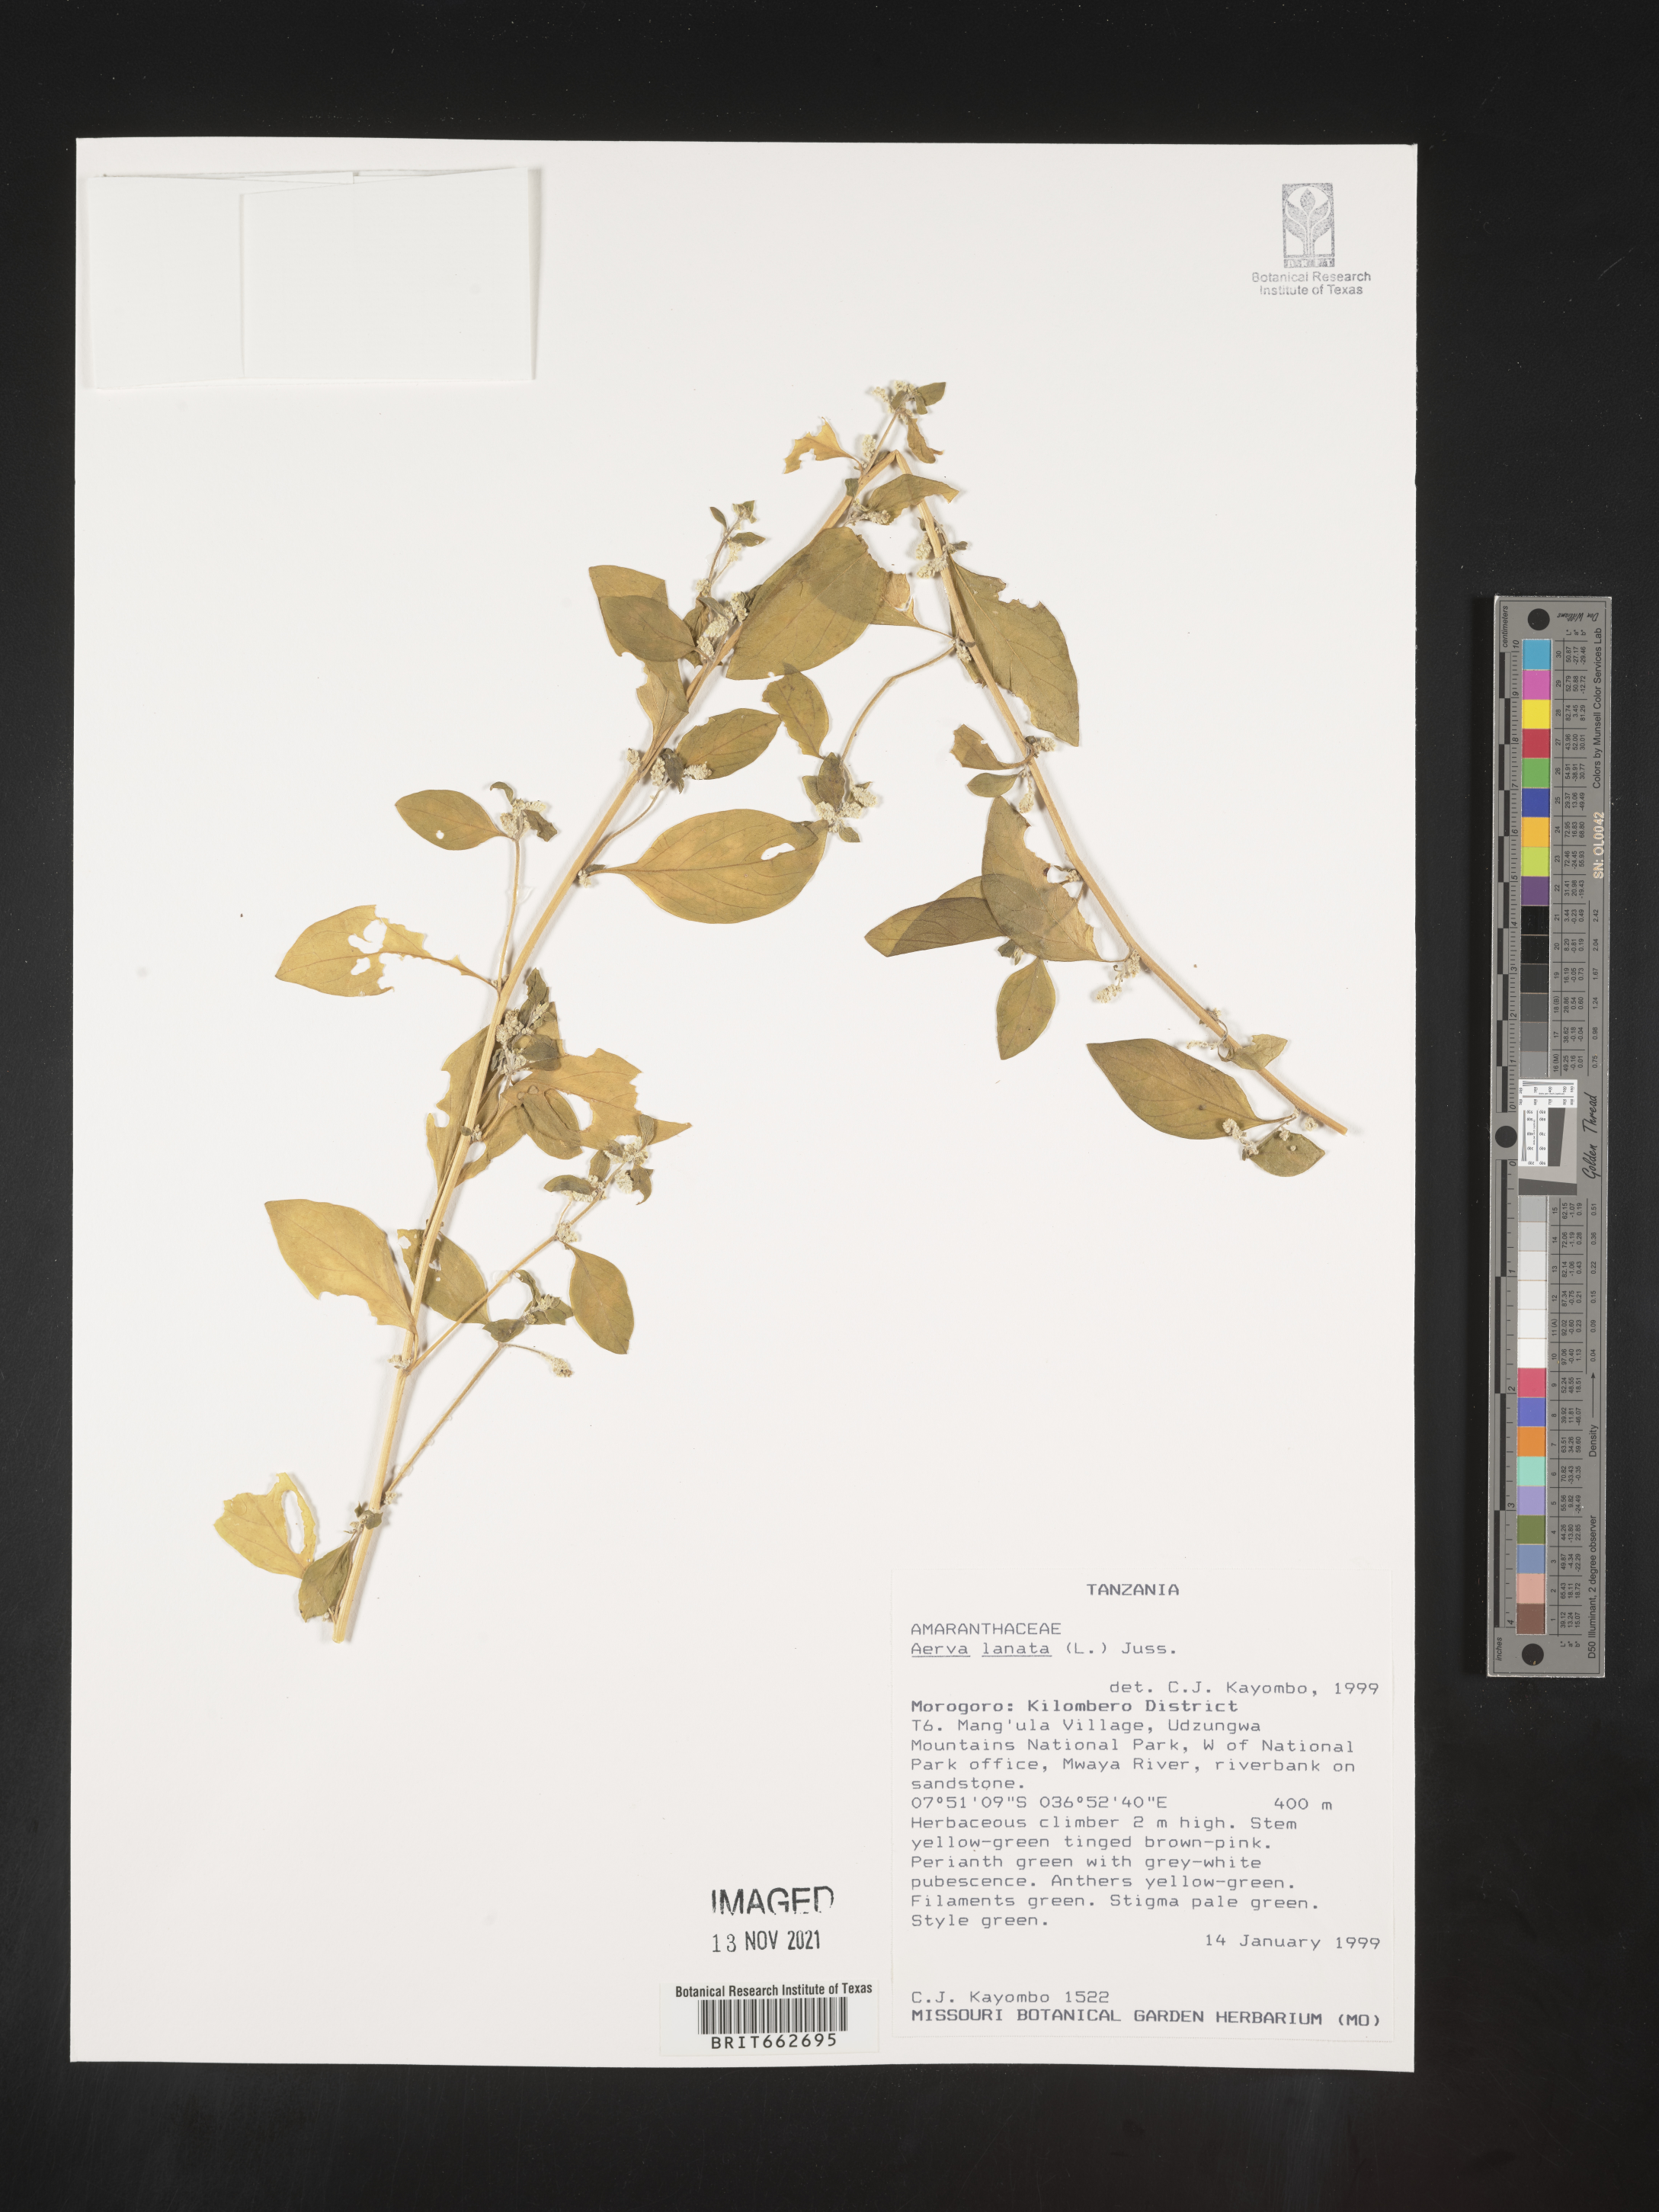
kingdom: Plantae
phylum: Tracheophyta
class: Magnoliopsida
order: Caryophyllales
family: Amaranthaceae
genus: Aerva
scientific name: Aerva
